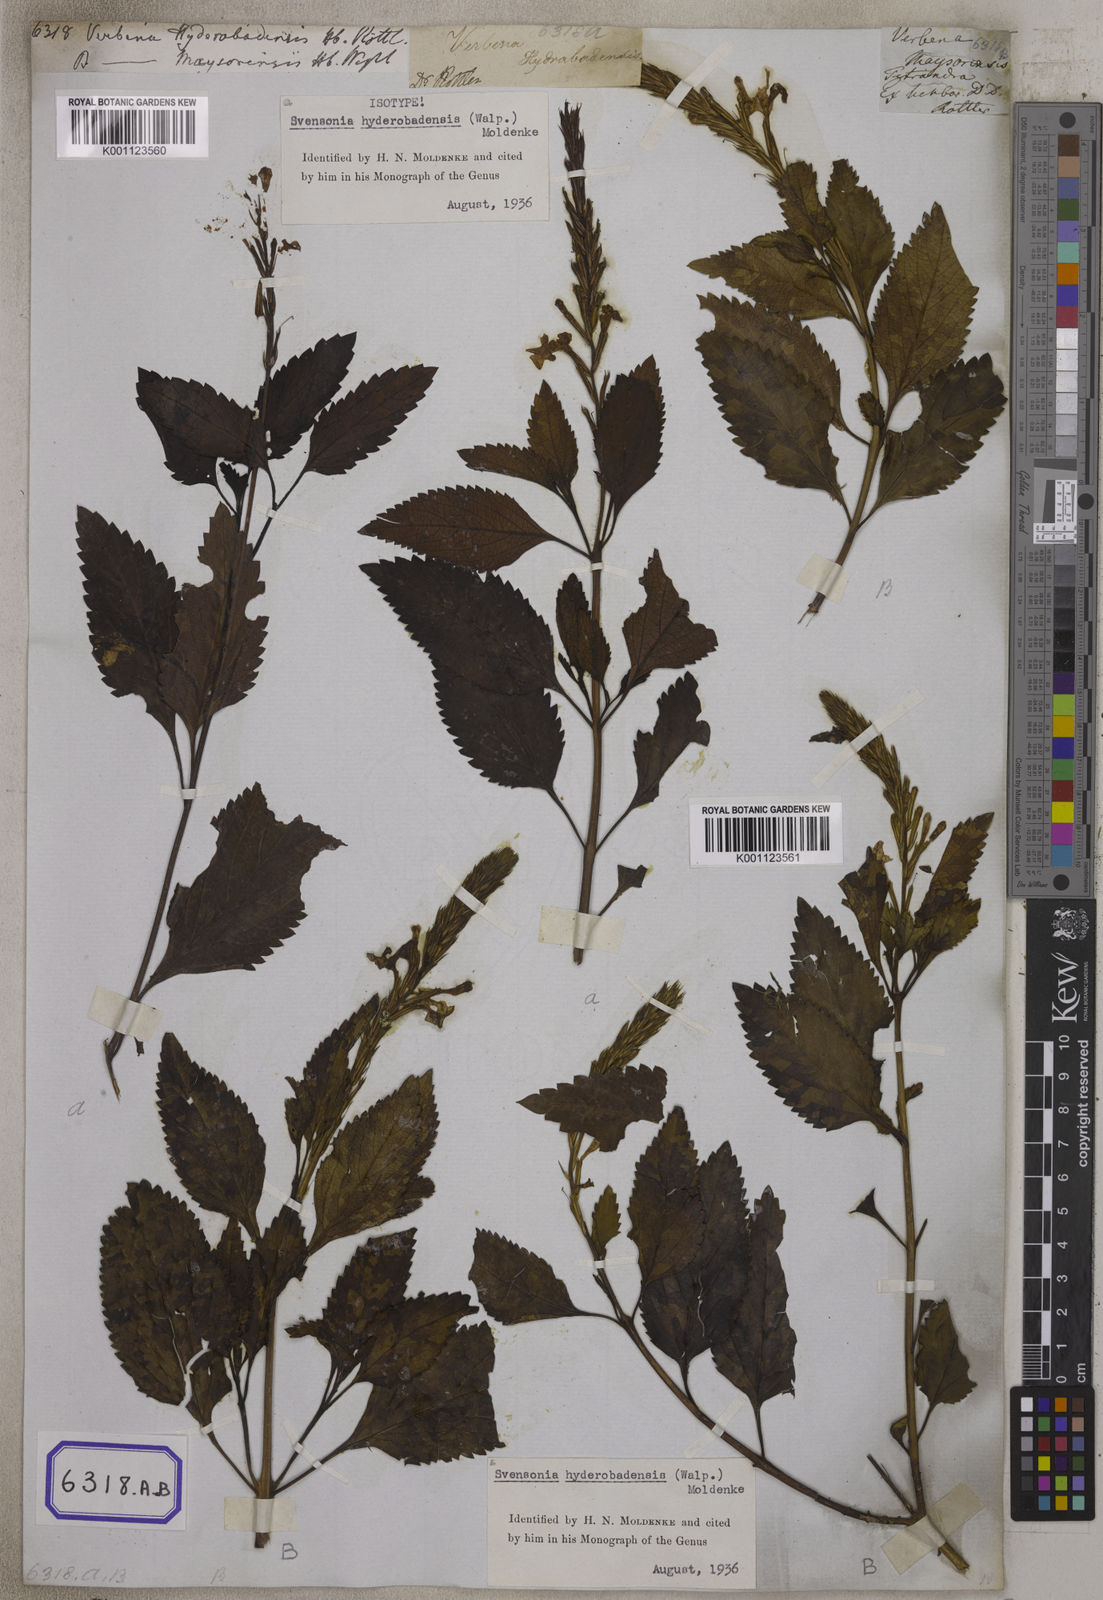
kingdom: Plantae
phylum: Tracheophyta
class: Magnoliopsida
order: Lamiales
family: Verbenaceae
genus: Chascanum
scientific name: Chascanum hyderabadense
